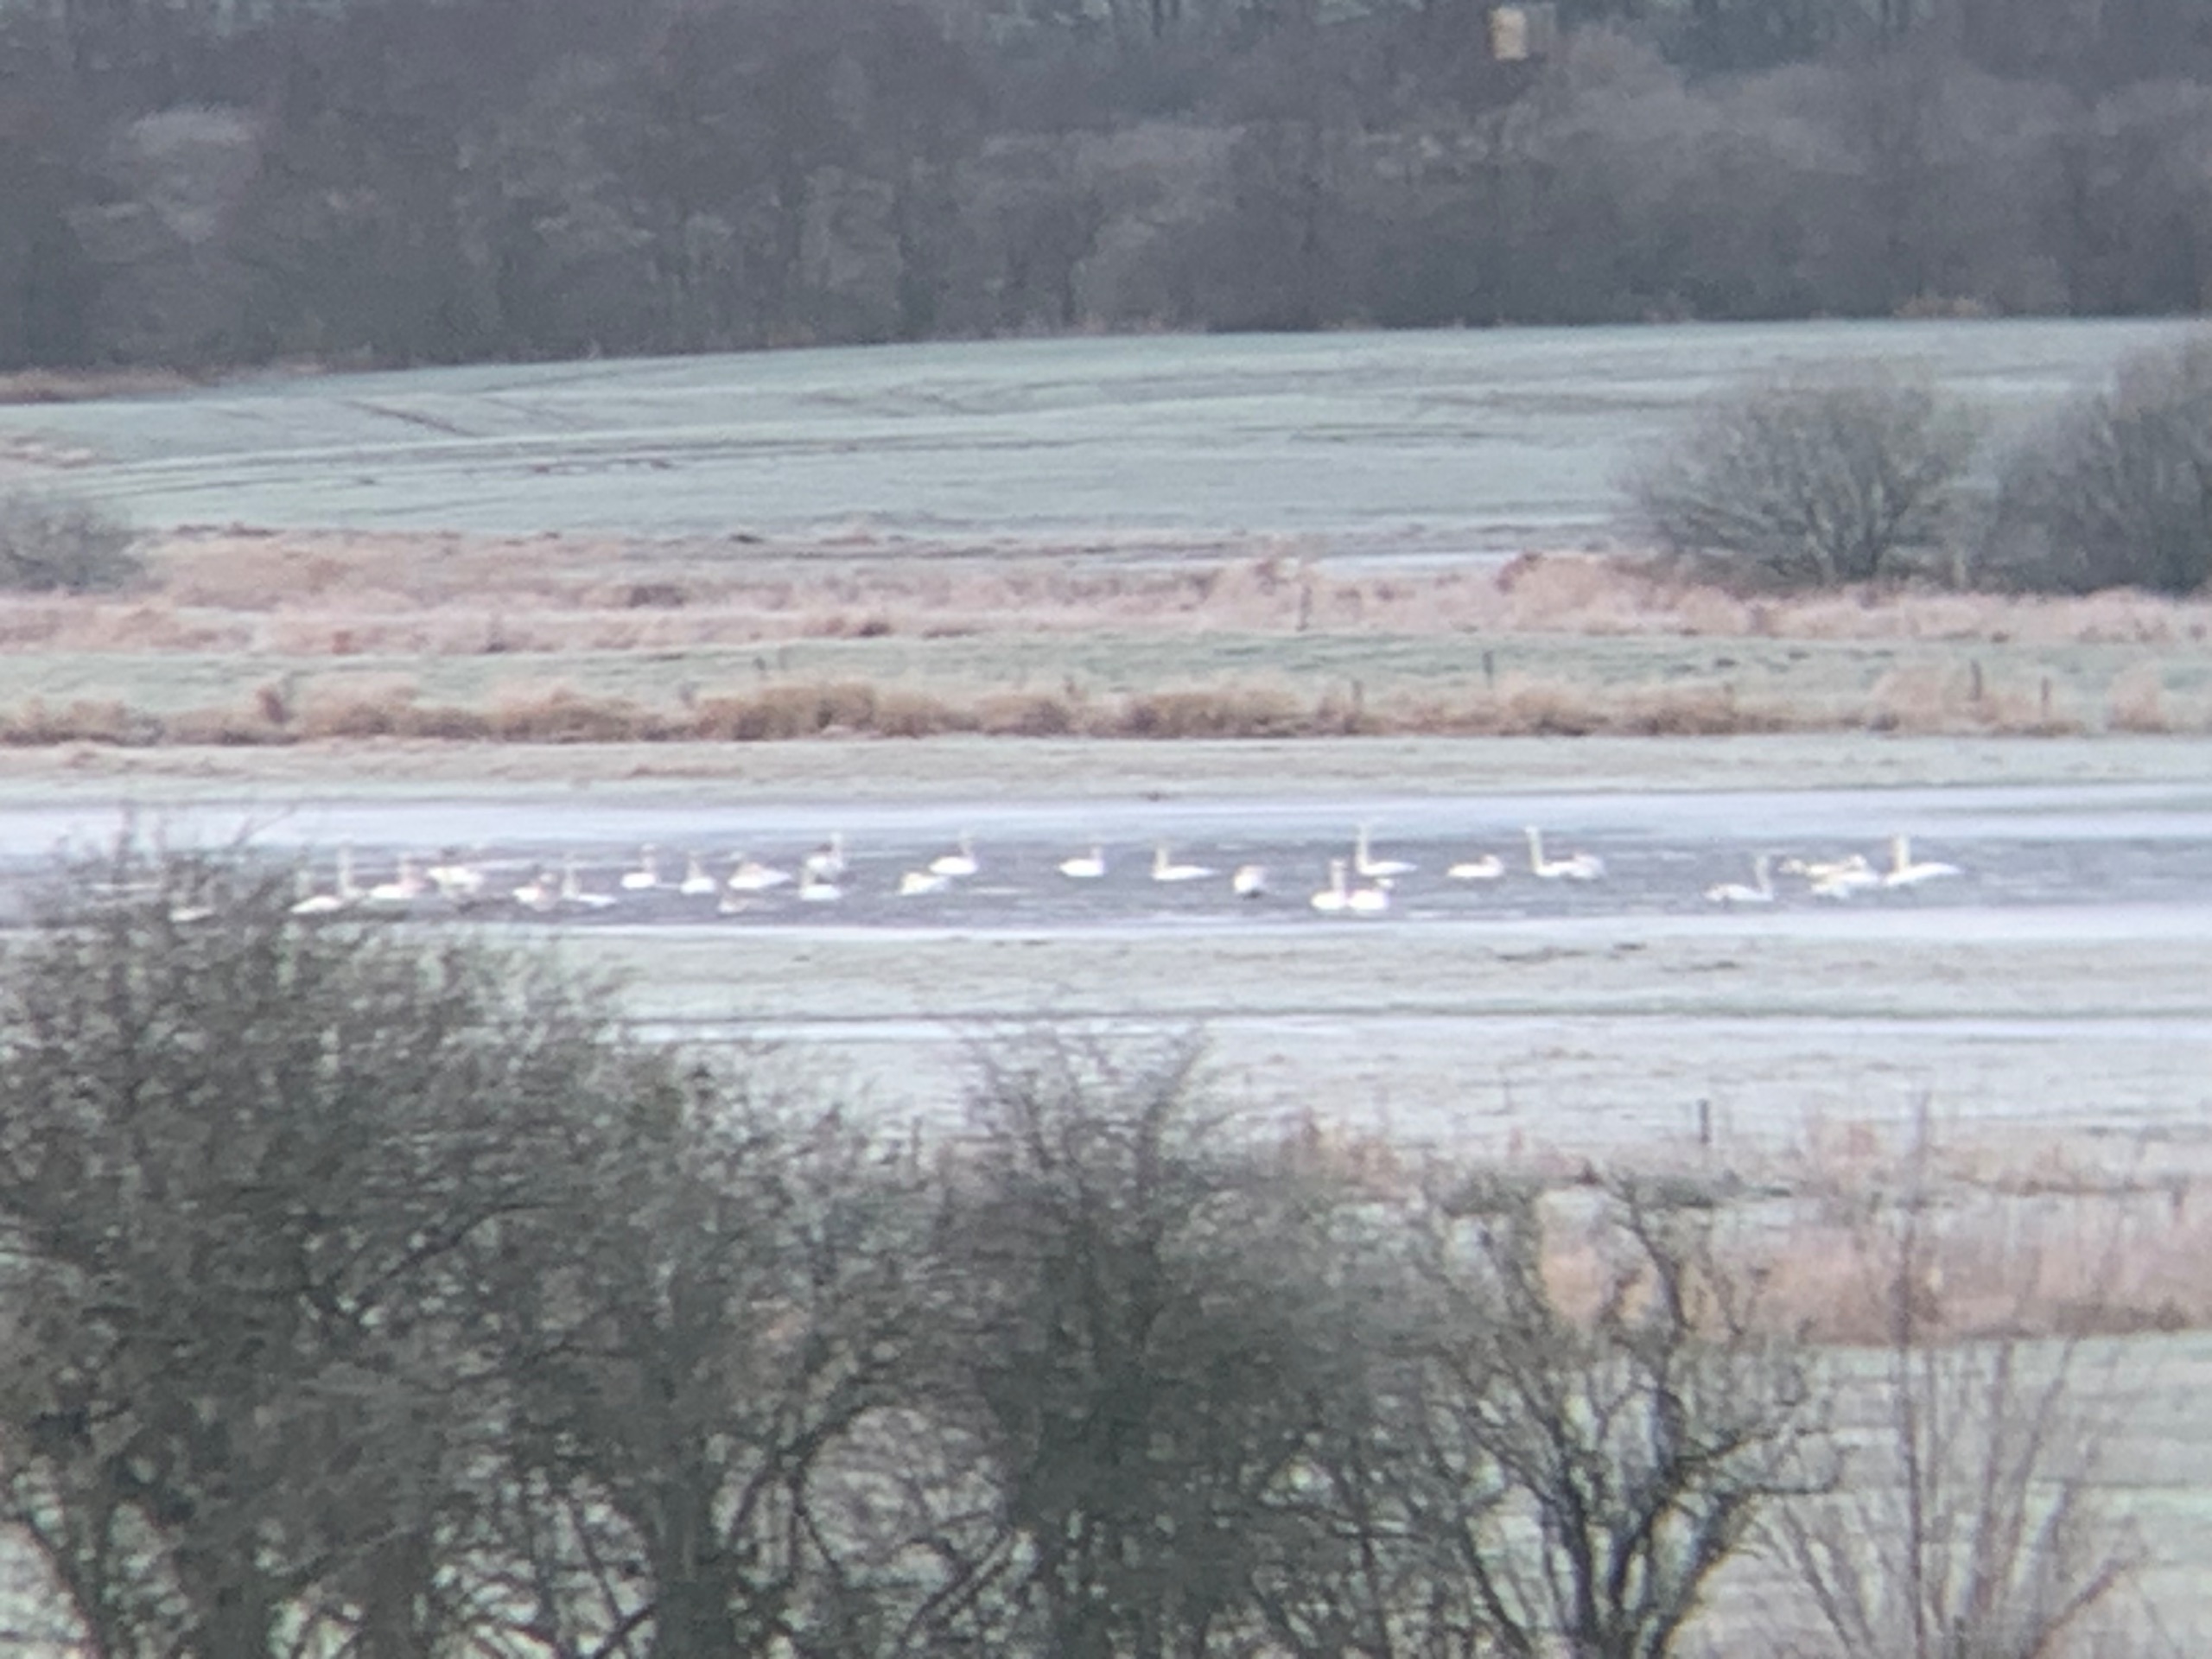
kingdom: Animalia
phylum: Chordata
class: Aves
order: Anseriformes
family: Anatidae
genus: Cygnus
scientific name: Cygnus cygnus
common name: Sangsvane
